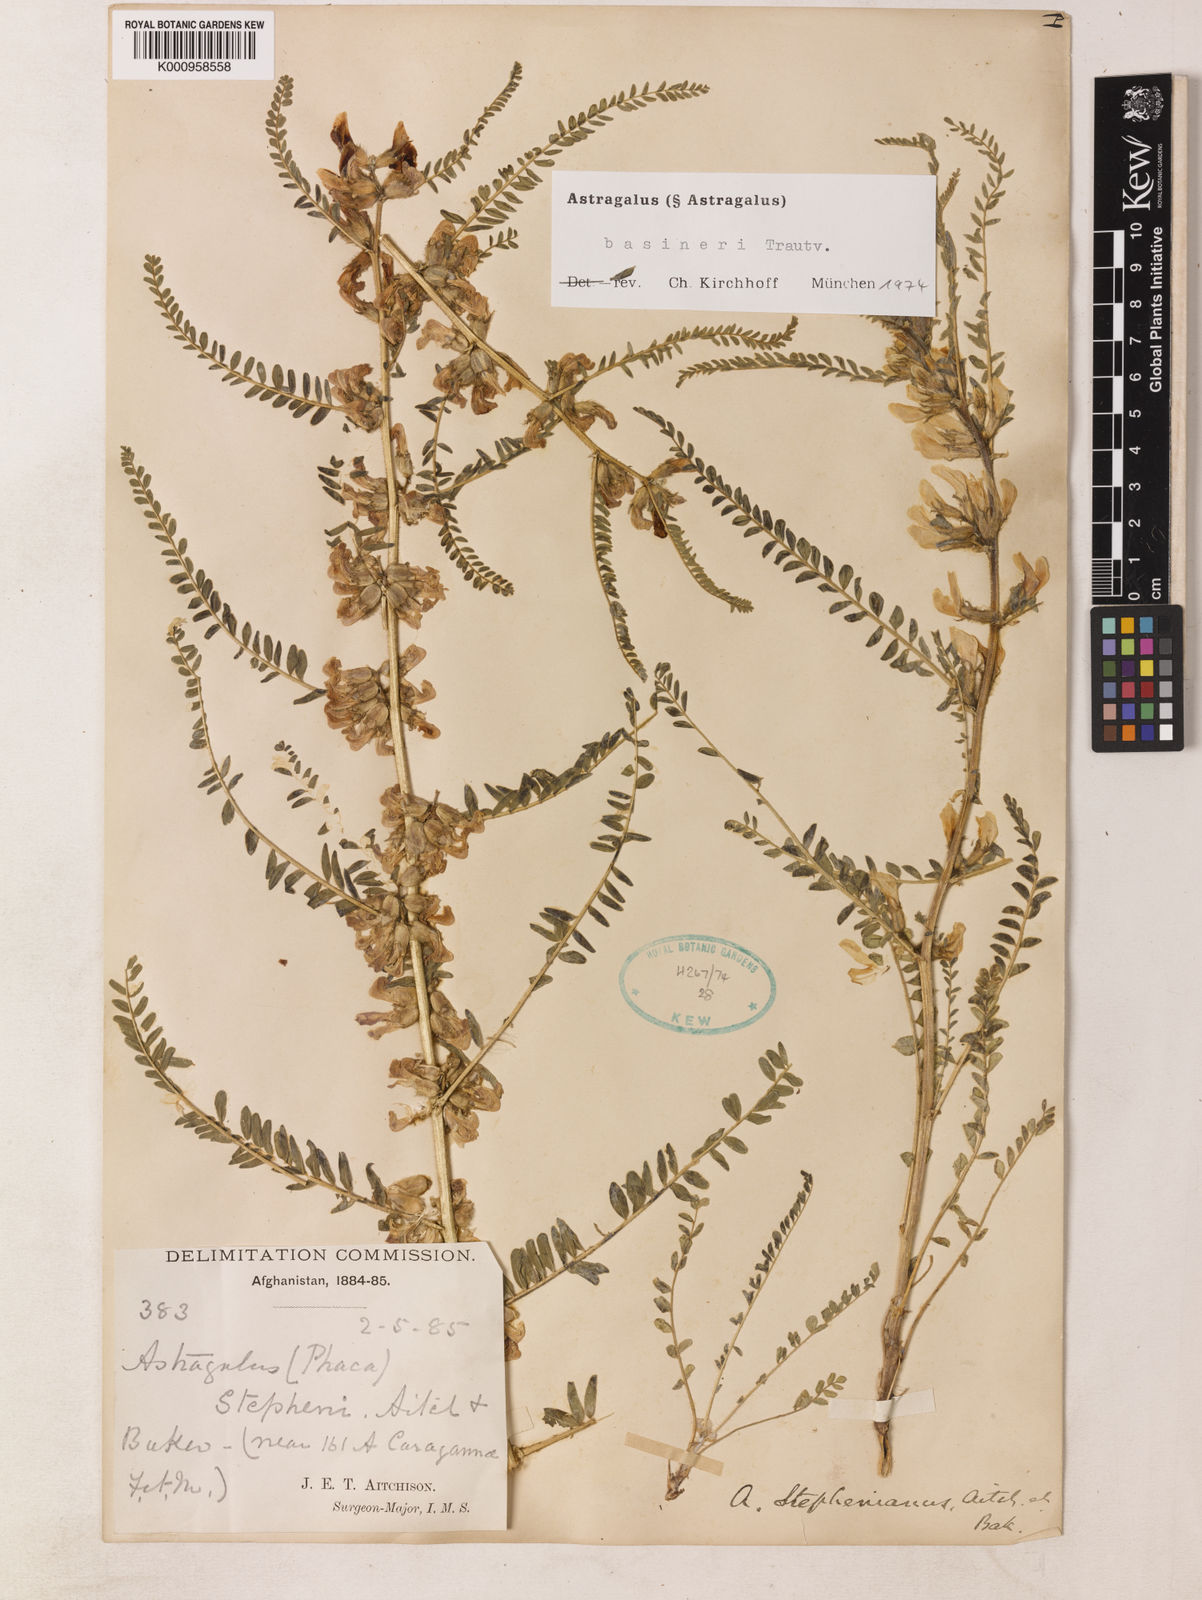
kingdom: Plantae
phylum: Tracheophyta
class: Magnoliopsida
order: Fabales
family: Fabaceae
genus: Astragalus
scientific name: Astragalus basineri
